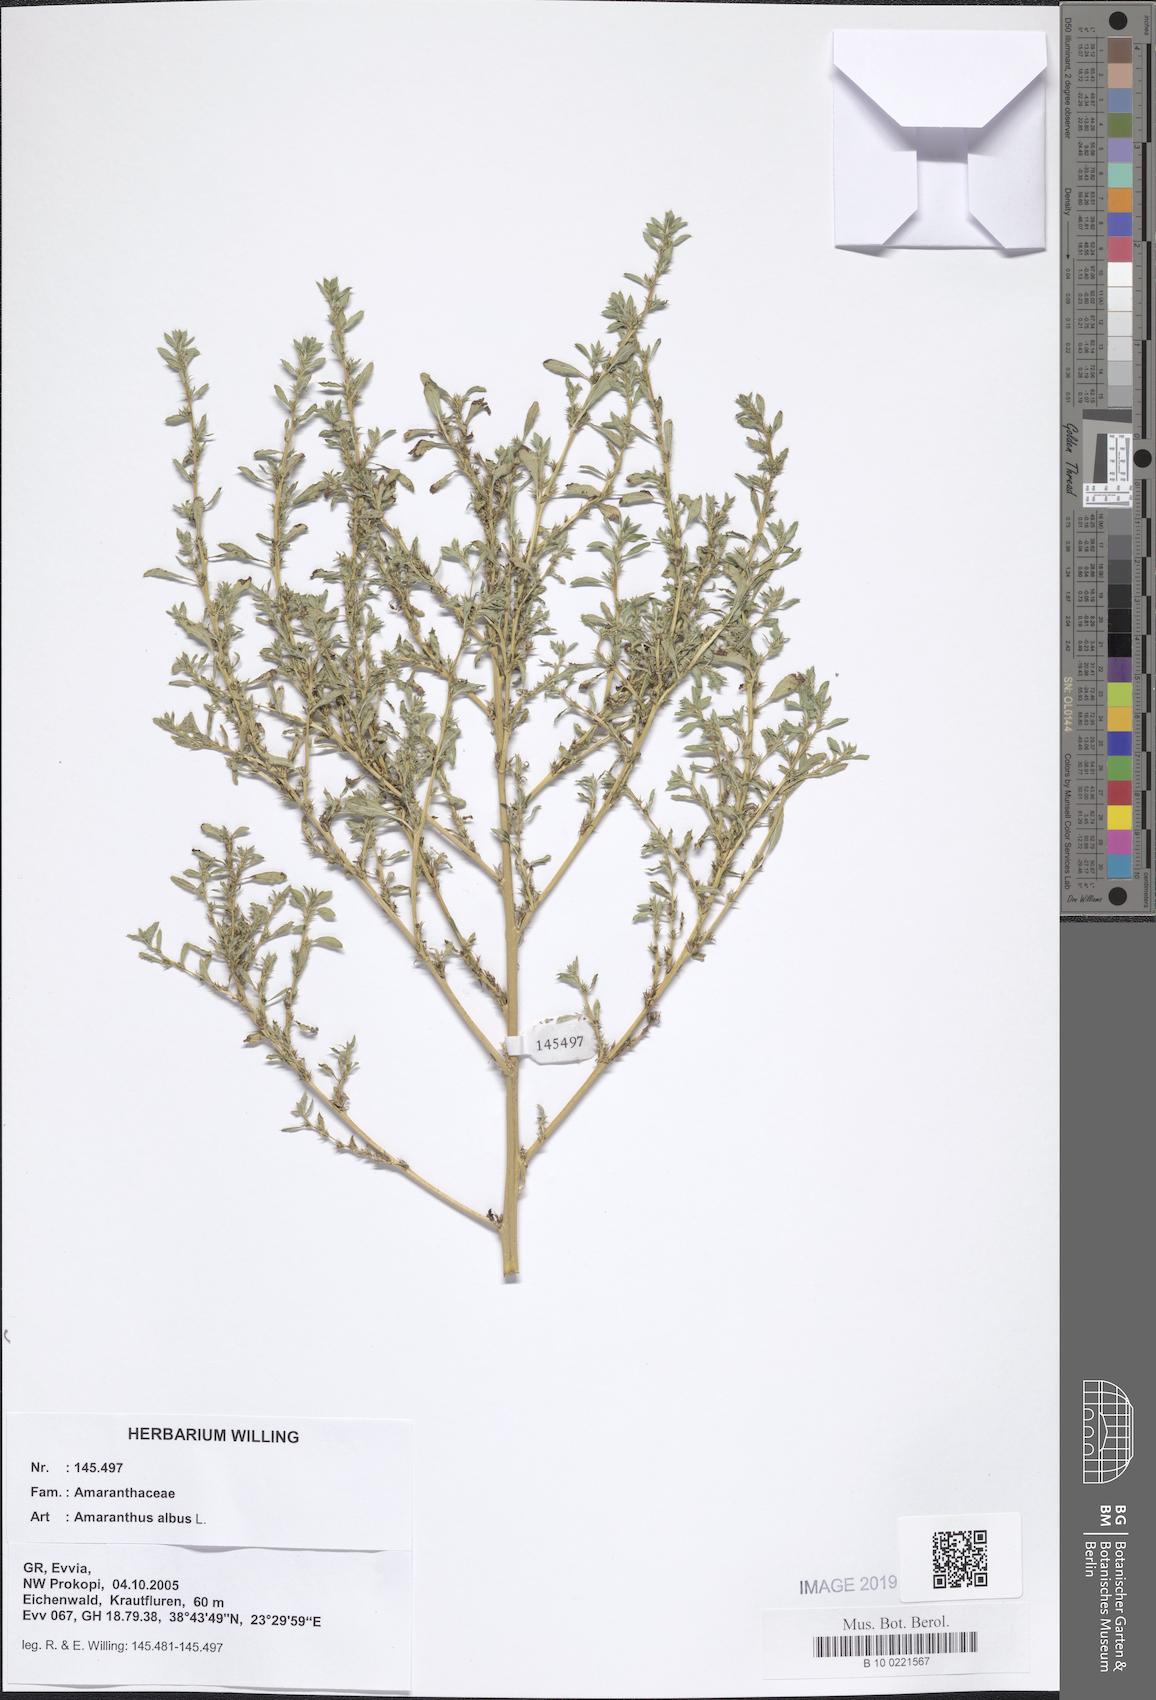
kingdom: Plantae
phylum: Tracheophyta
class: Magnoliopsida
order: Caryophyllales
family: Amaranthaceae
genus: Amaranthus
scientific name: Amaranthus albus
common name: White pigweed
